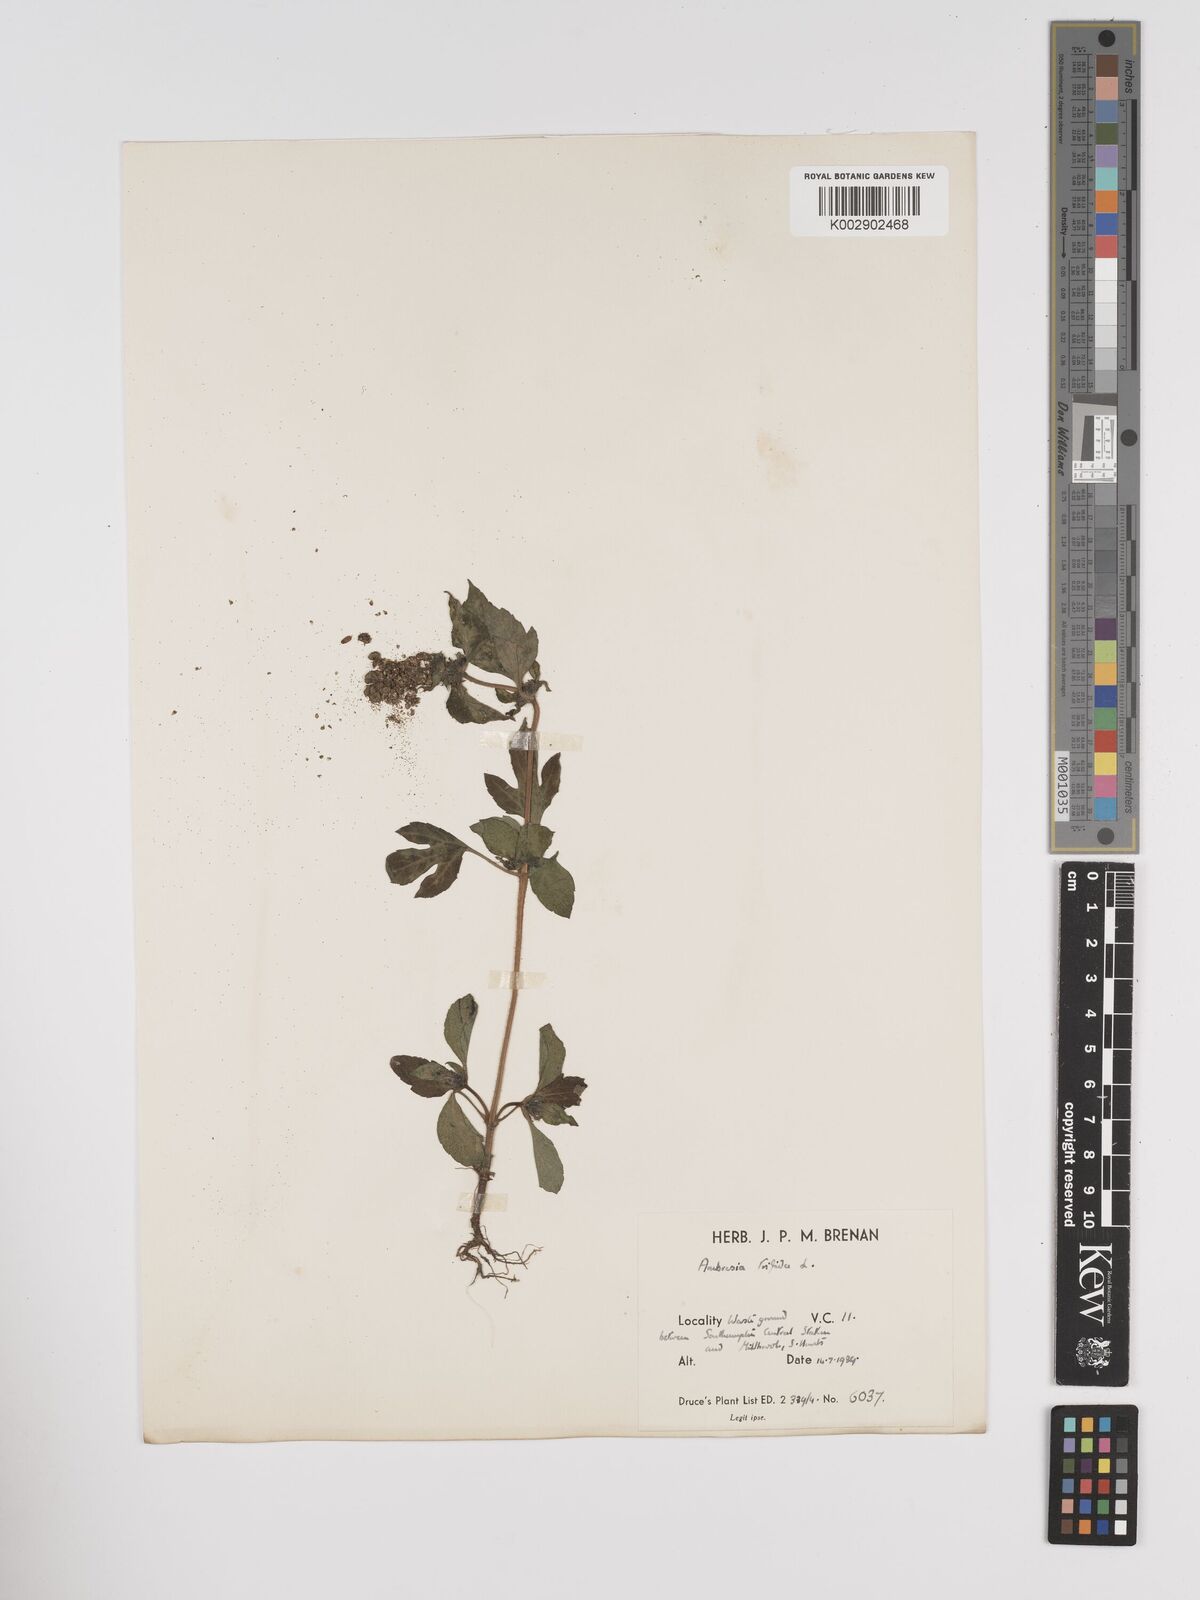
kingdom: Plantae
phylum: Tracheophyta
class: Magnoliopsida
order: Asterales
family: Asteraceae
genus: Ambrosia
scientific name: Ambrosia trifida
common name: Giant ragweed
